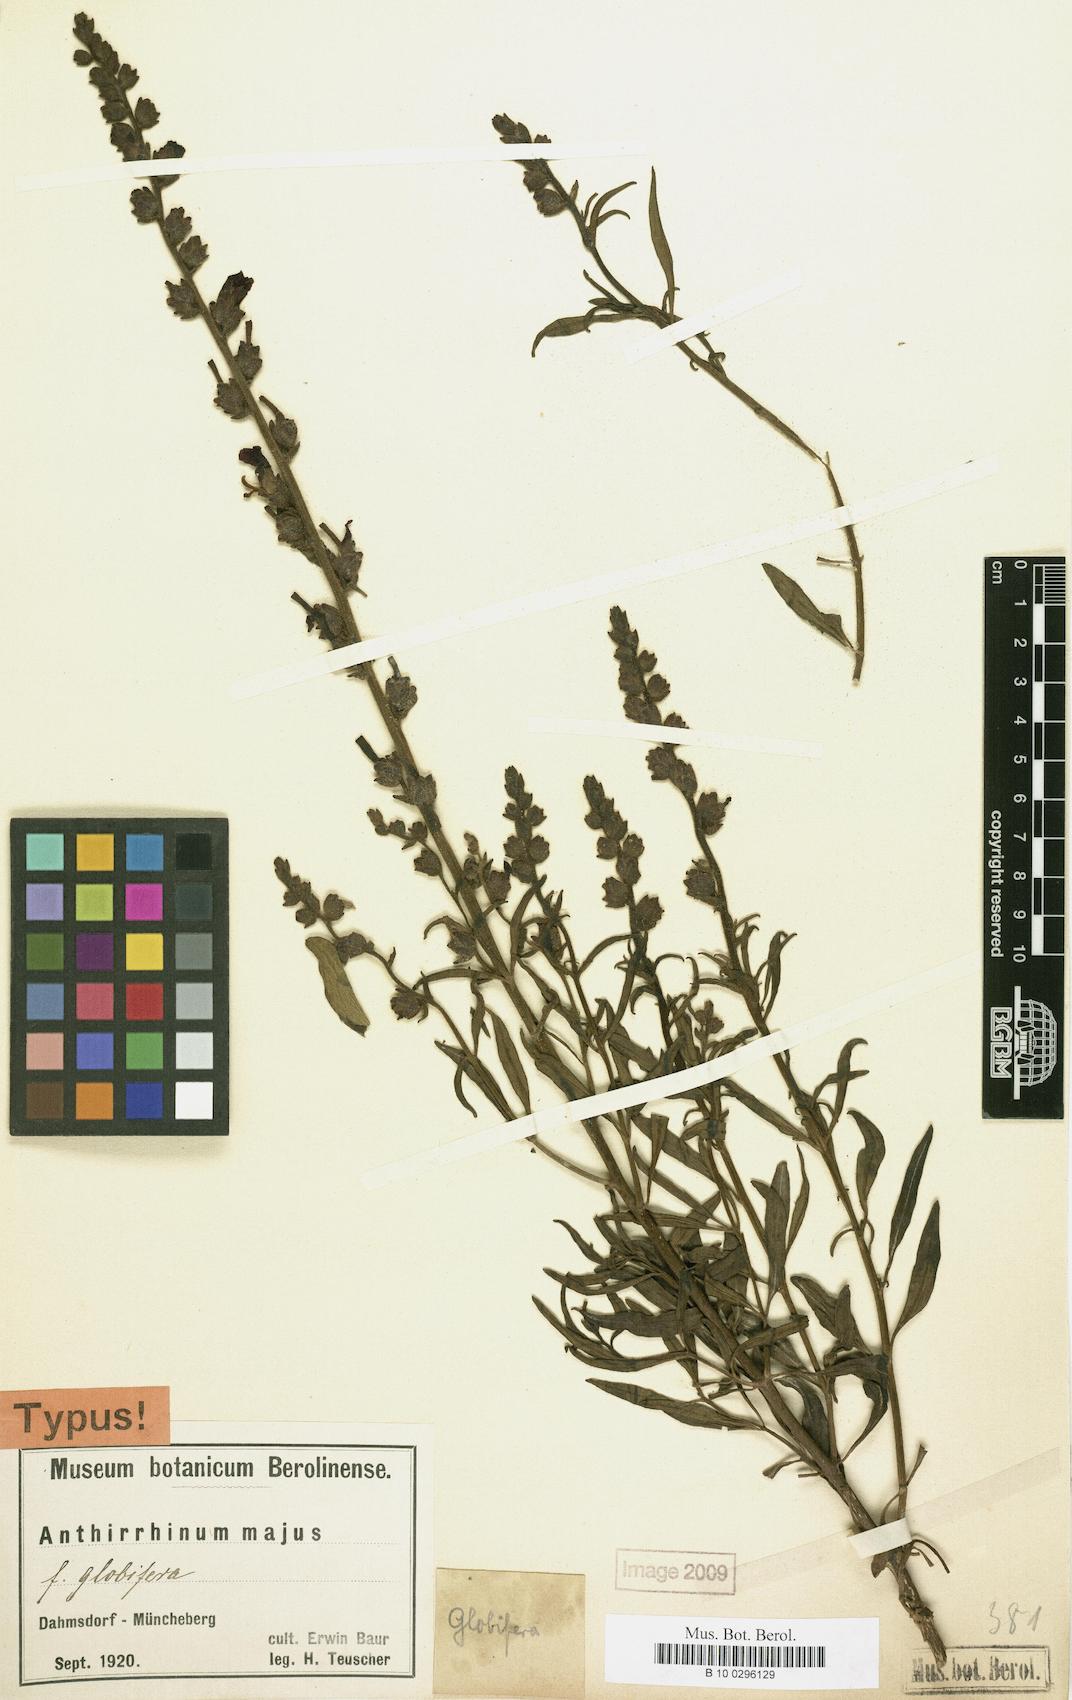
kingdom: Plantae
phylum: Tracheophyta
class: Magnoliopsida
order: Lamiales
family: Plantaginaceae
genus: Antirrhinum
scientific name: Antirrhinum majus
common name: Snapdragon
